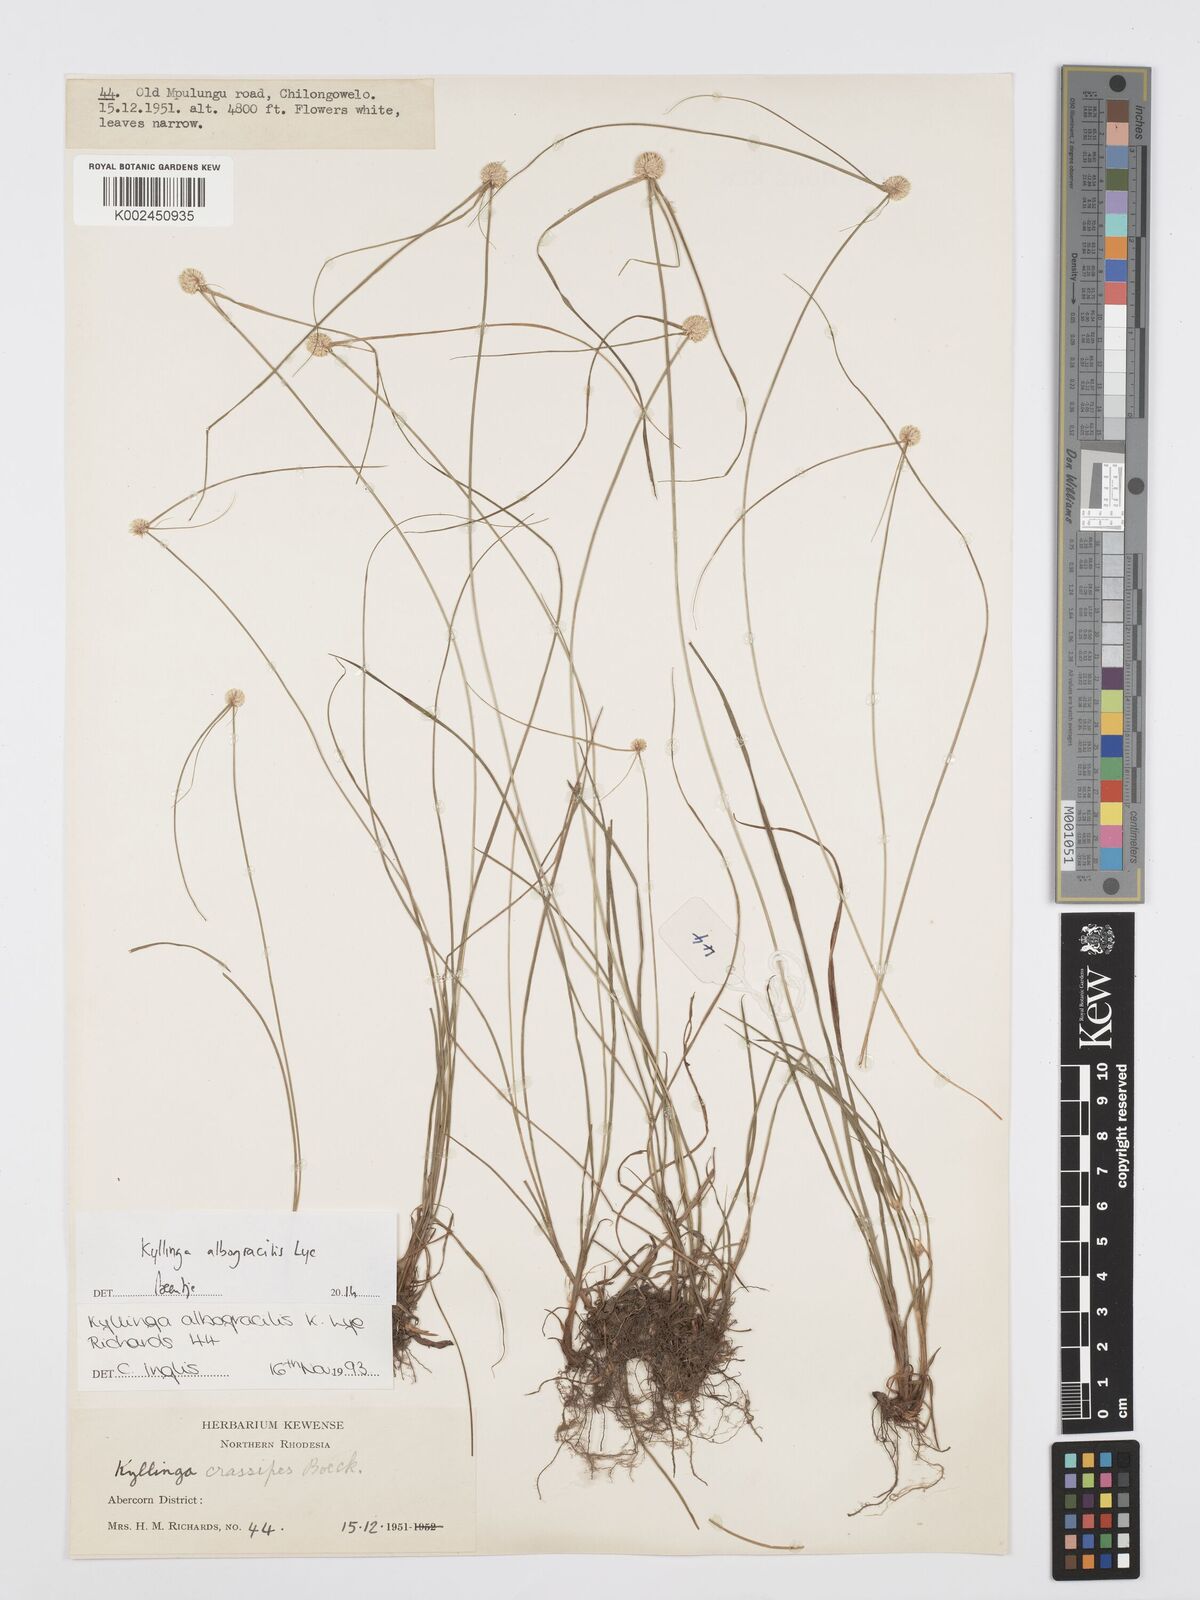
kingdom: Plantae
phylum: Tracheophyta
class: Liliopsida
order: Poales
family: Cyperaceae
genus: Cyperus
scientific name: Cyperus albogracilis
